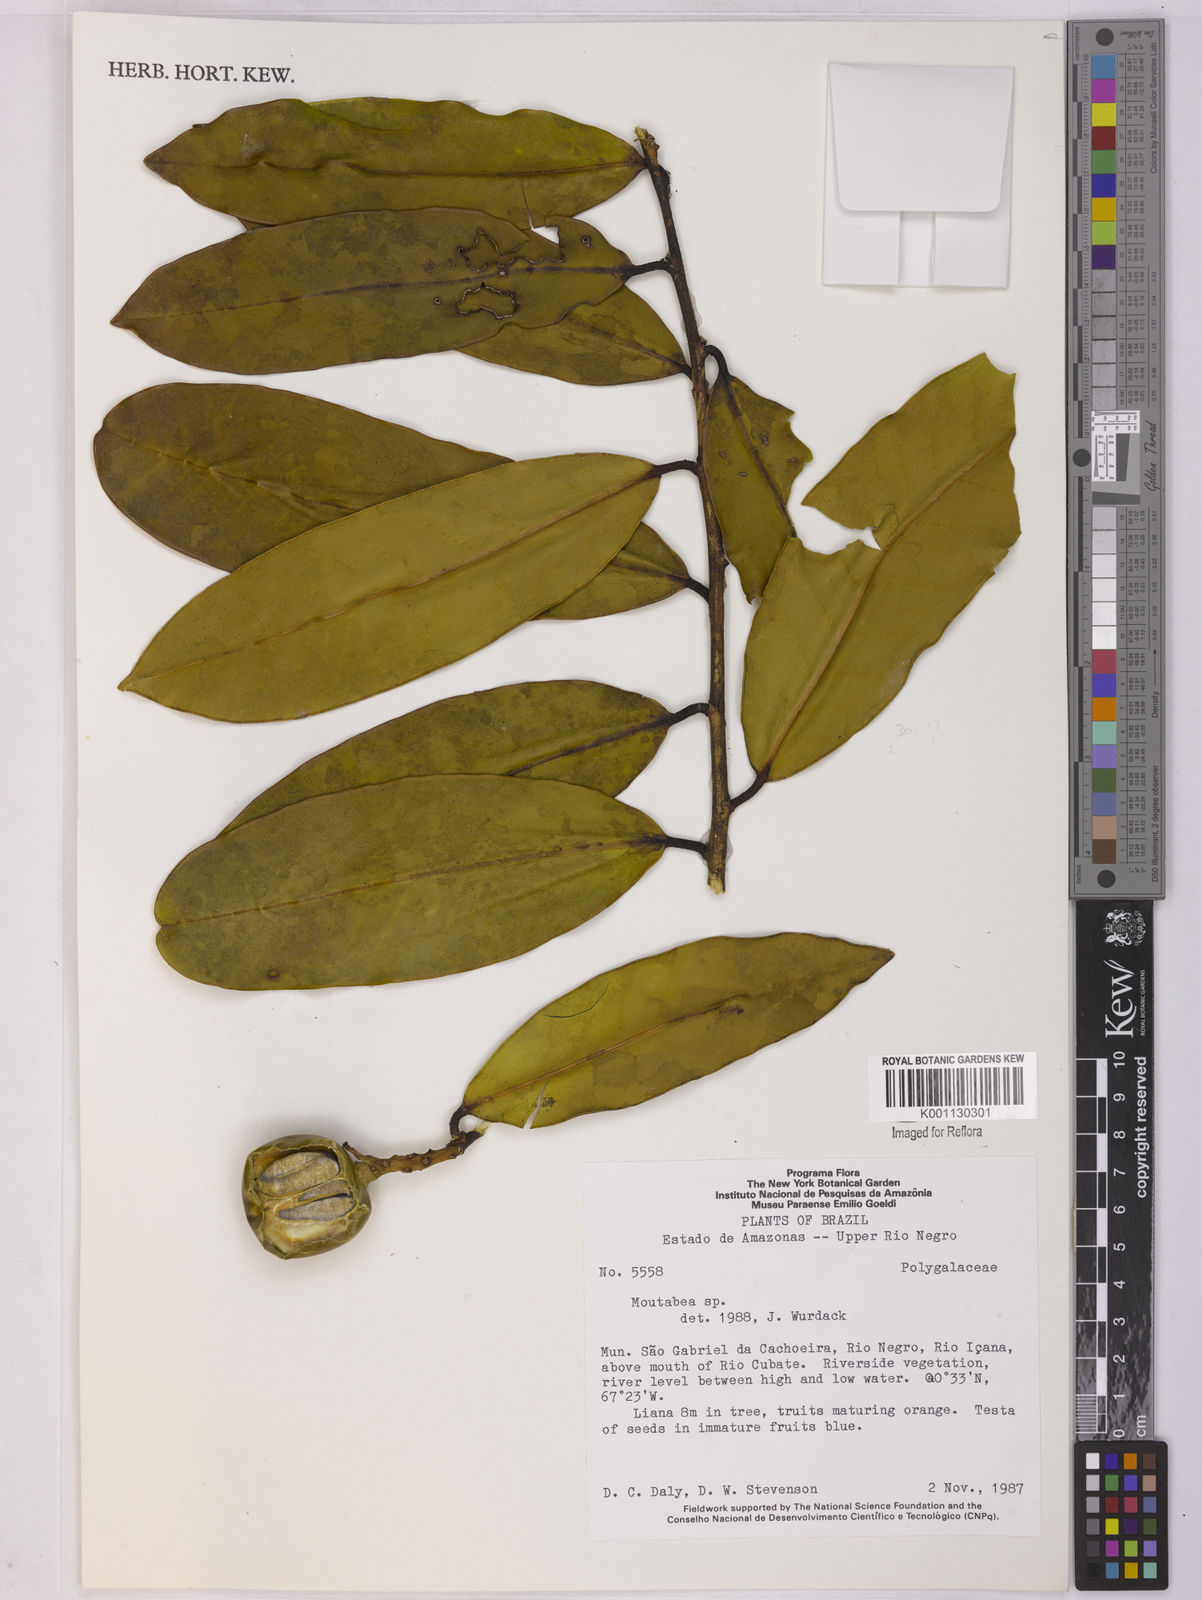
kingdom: Plantae
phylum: Tracheophyta
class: Magnoliopsida
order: Fabales
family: Polygalaceae
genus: Moutabea
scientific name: Moutabea
